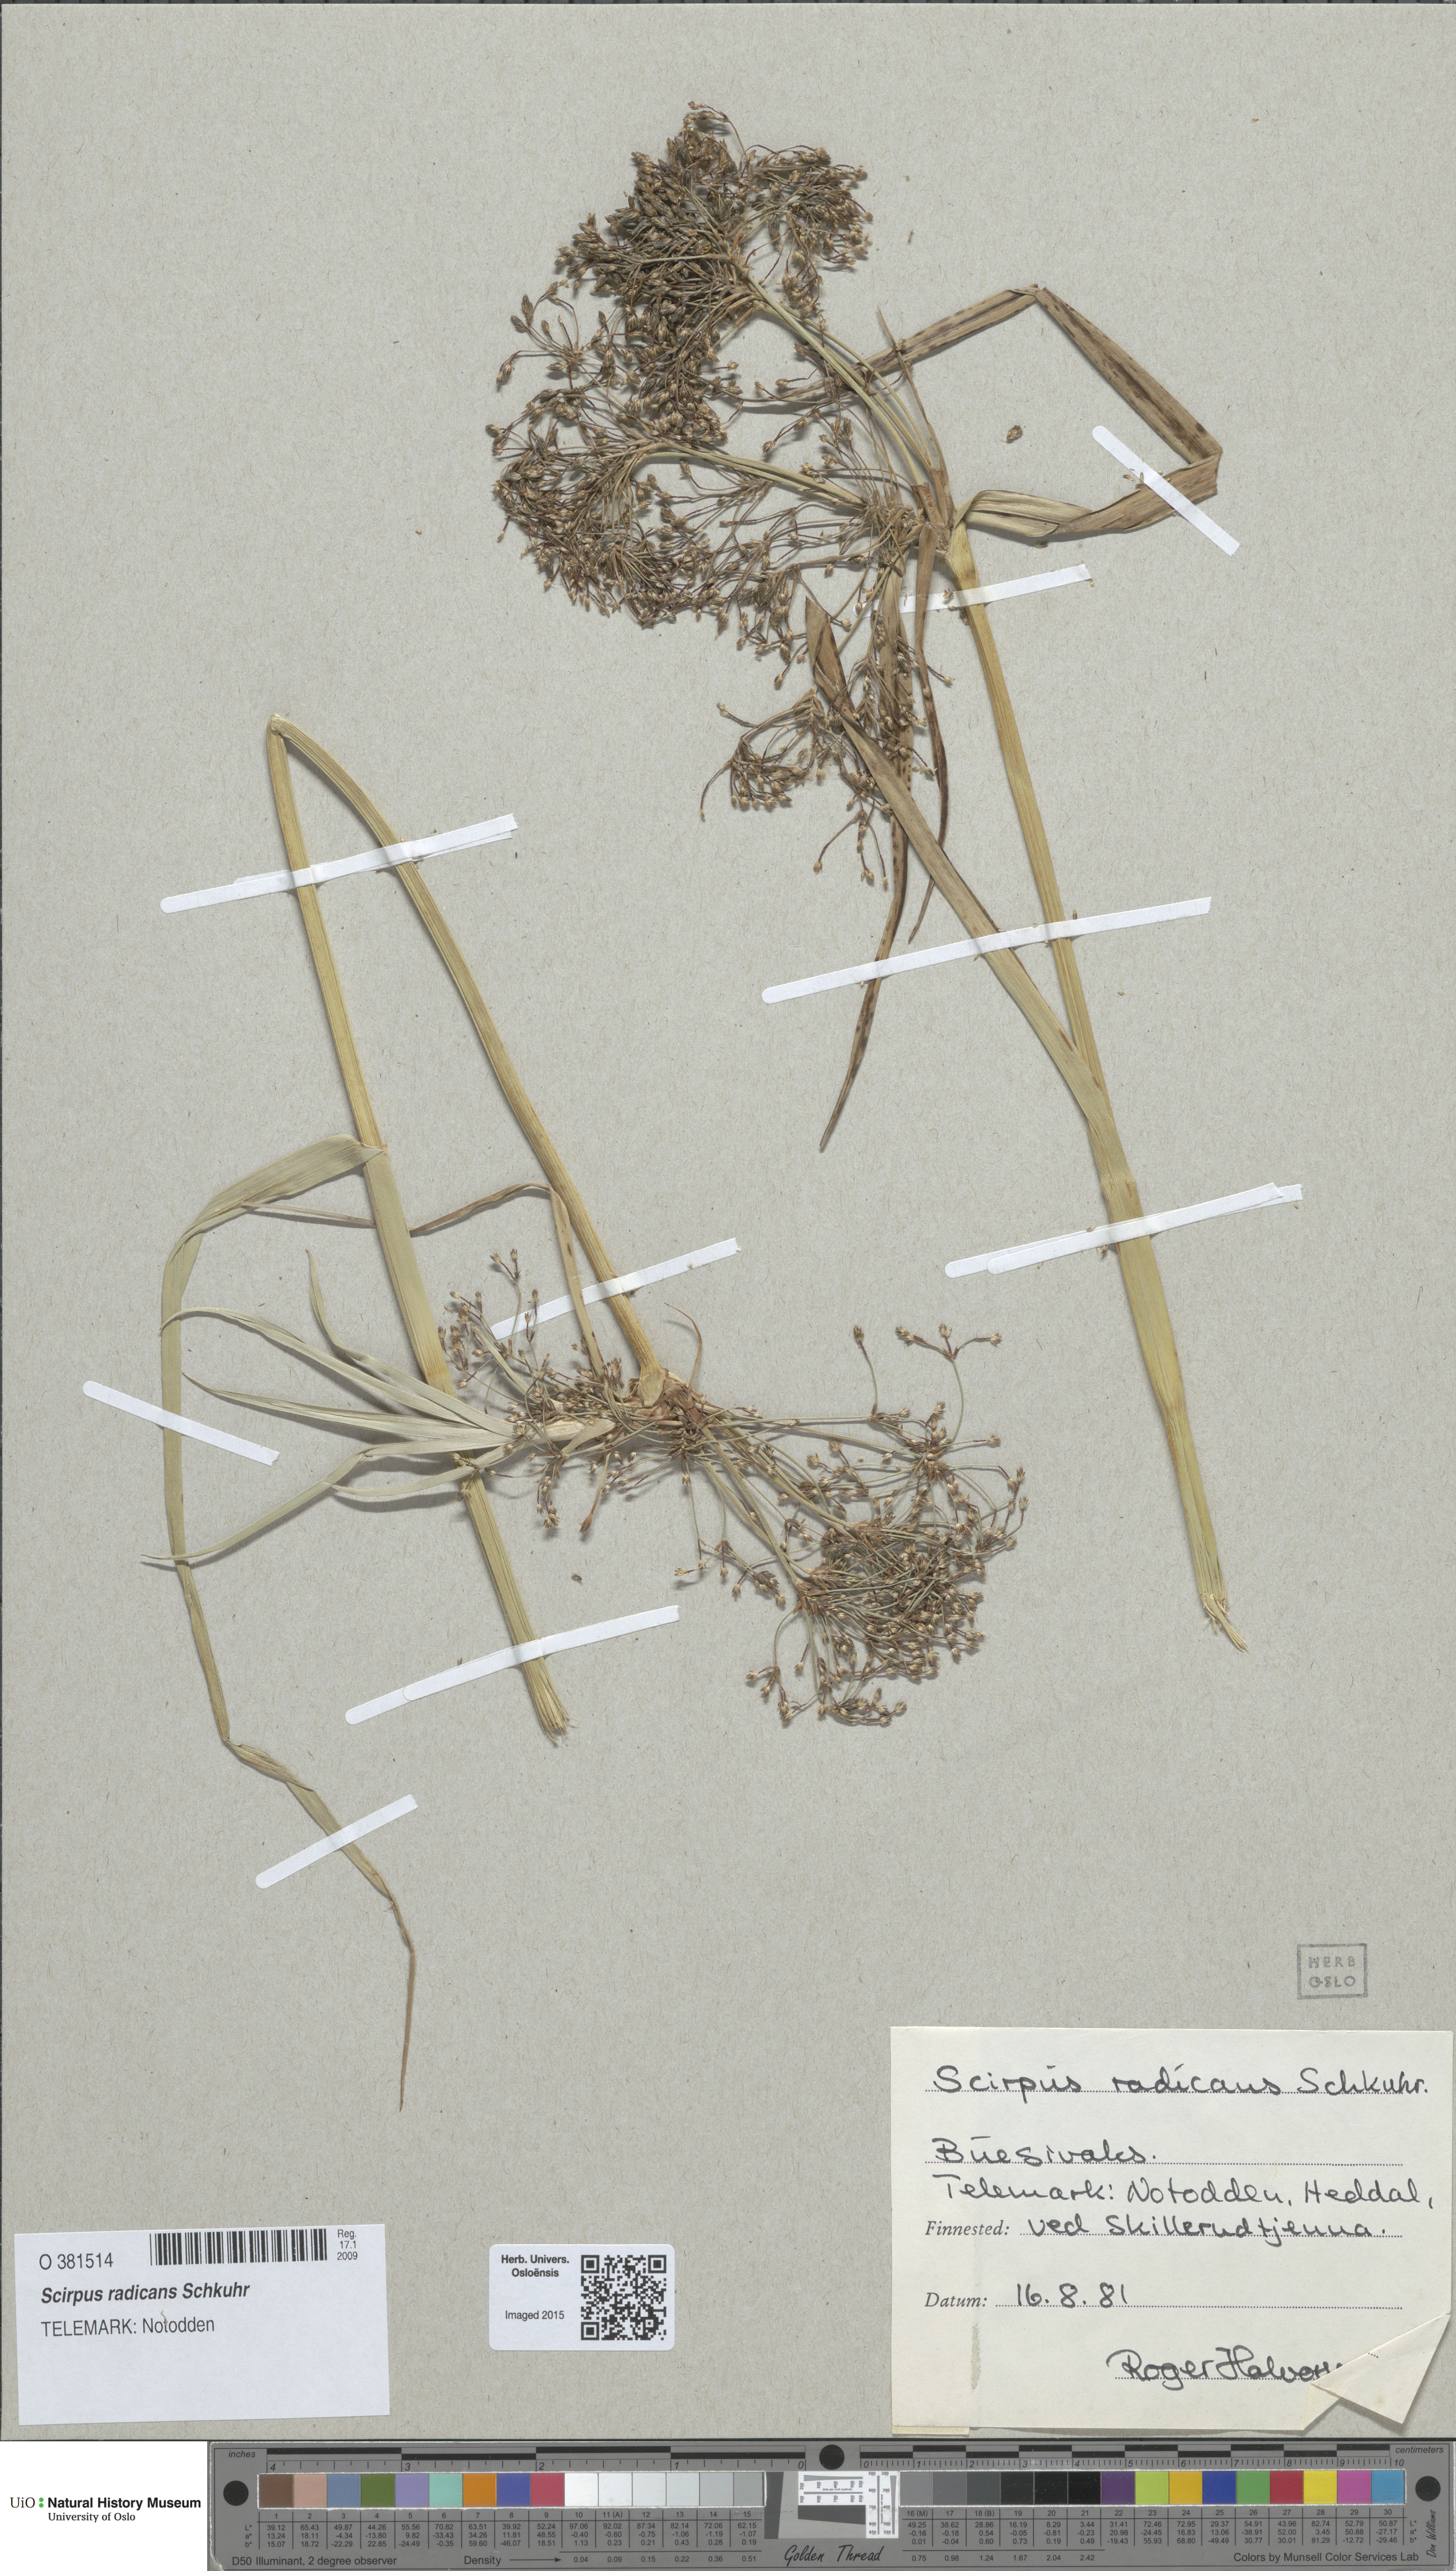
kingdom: Plantae
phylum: Tracheophyta
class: Liliopsida
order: Poales
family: Cyperaceae
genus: Scirpus
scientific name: Scirpus radicans
